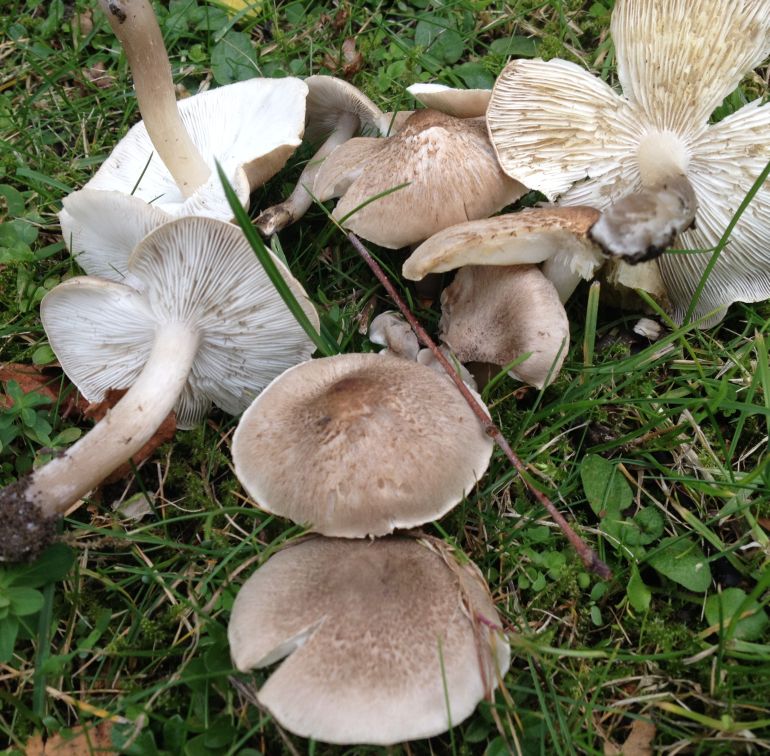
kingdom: Fungi
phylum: Basidiomycota
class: Agaricomycetes
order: Agaricales
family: Tricholomataceae
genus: Tricholoma
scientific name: Tricholoma argyraceum
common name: spids ridderhat
